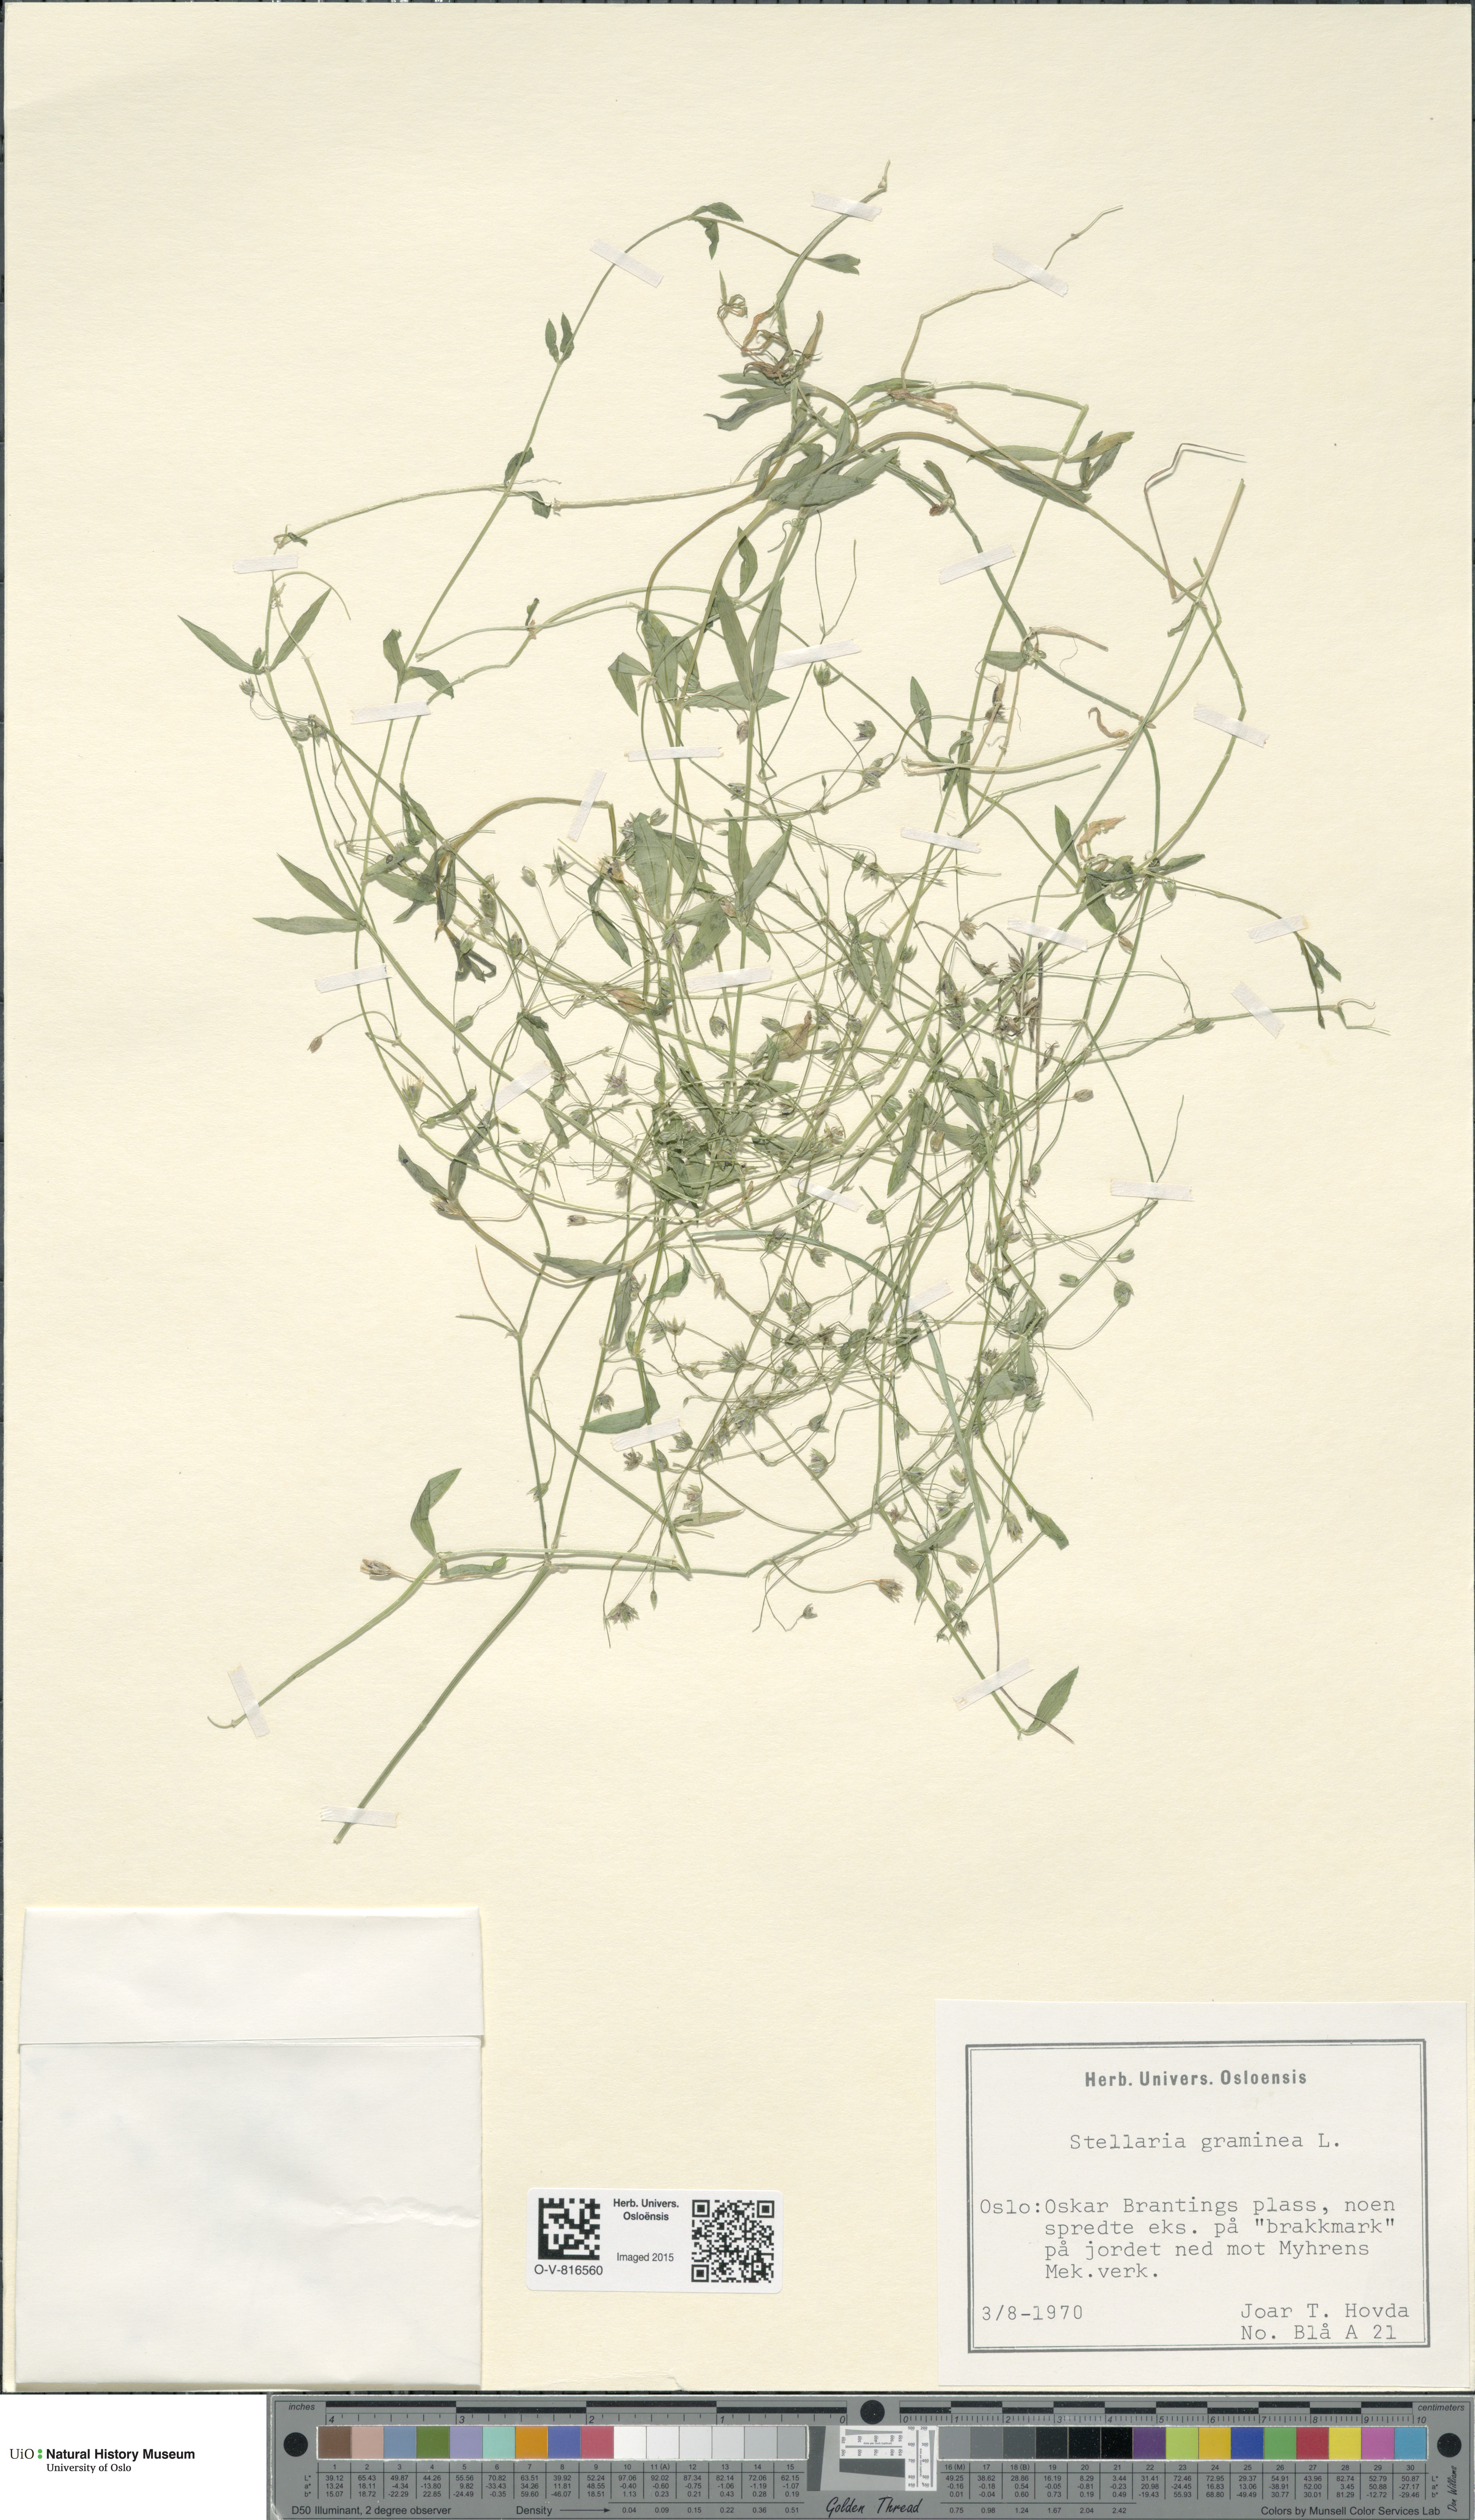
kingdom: Plantae
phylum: Tracheophyta
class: Magnoliopsida
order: Caryophyllales
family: Caryophyllaceae
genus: Stellaria
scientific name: Stellaria graminea
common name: Grass-like starwort
